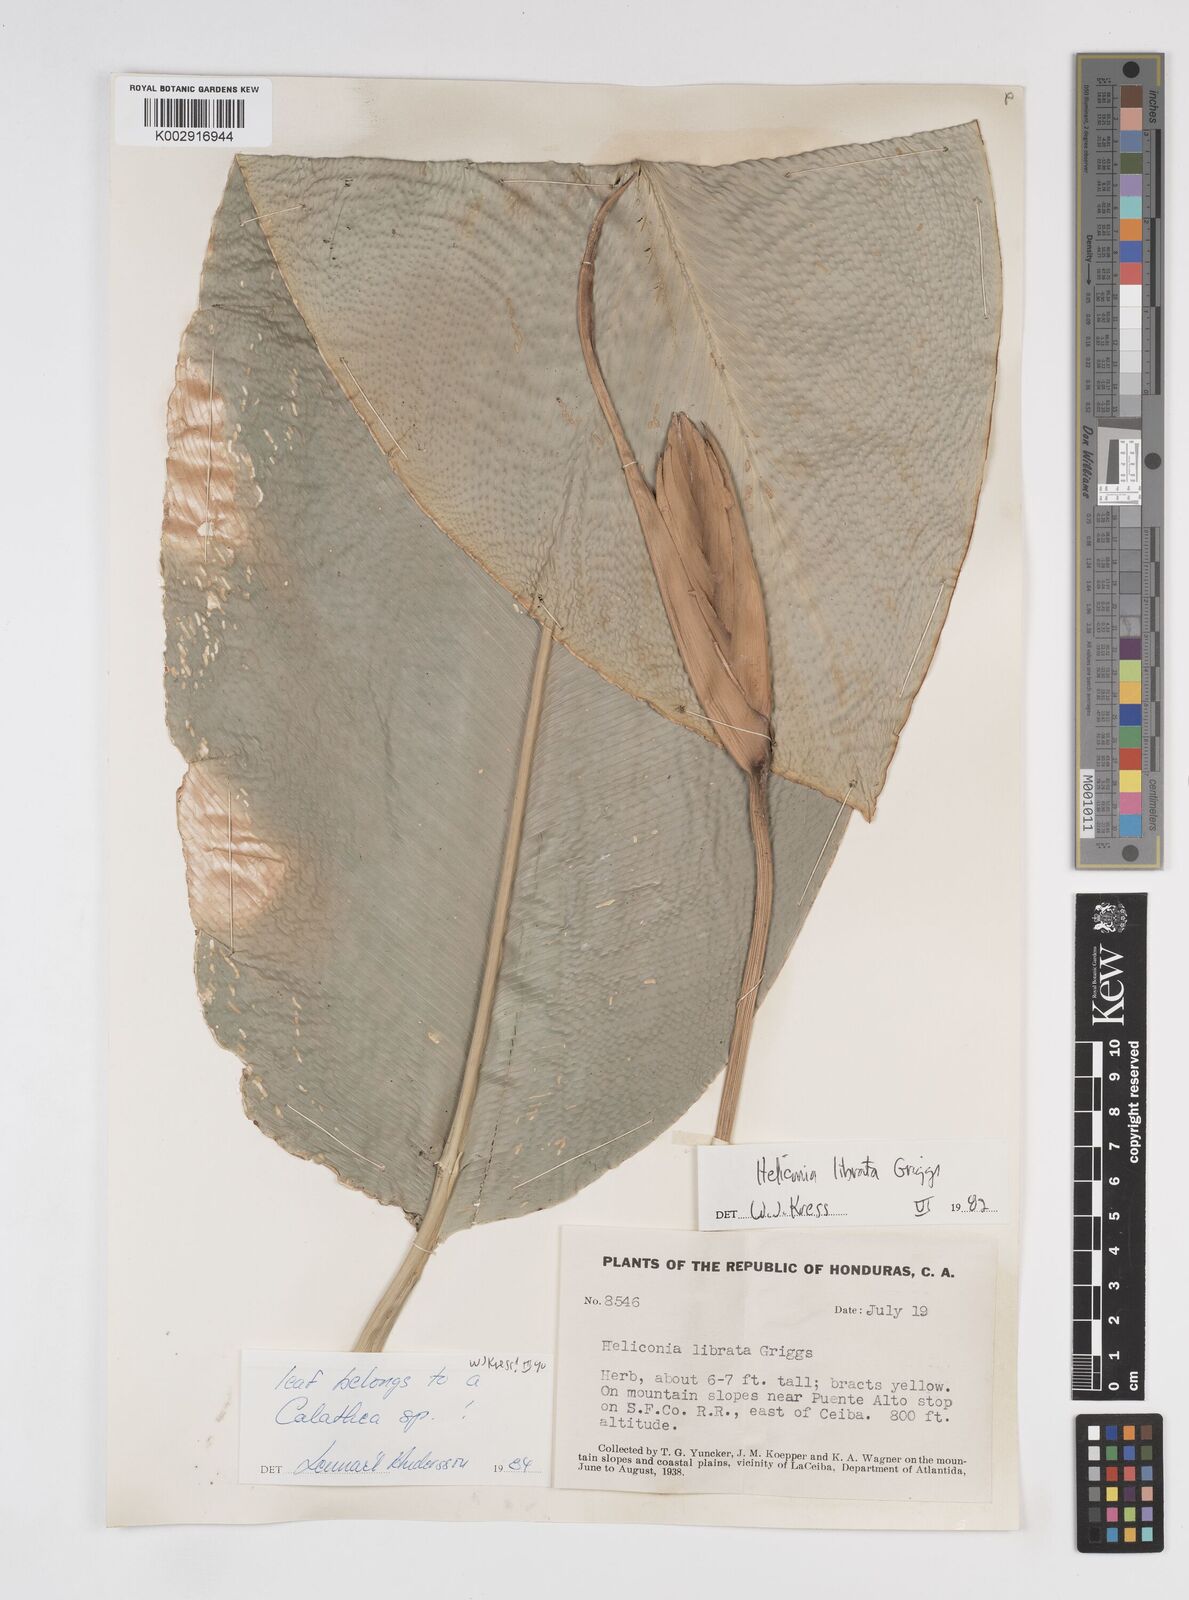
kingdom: Plantae
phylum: Tracheophyta
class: Liliopsida
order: Zingiberales
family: Heliconiaceae
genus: Heliconia
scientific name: Heliconia librata
